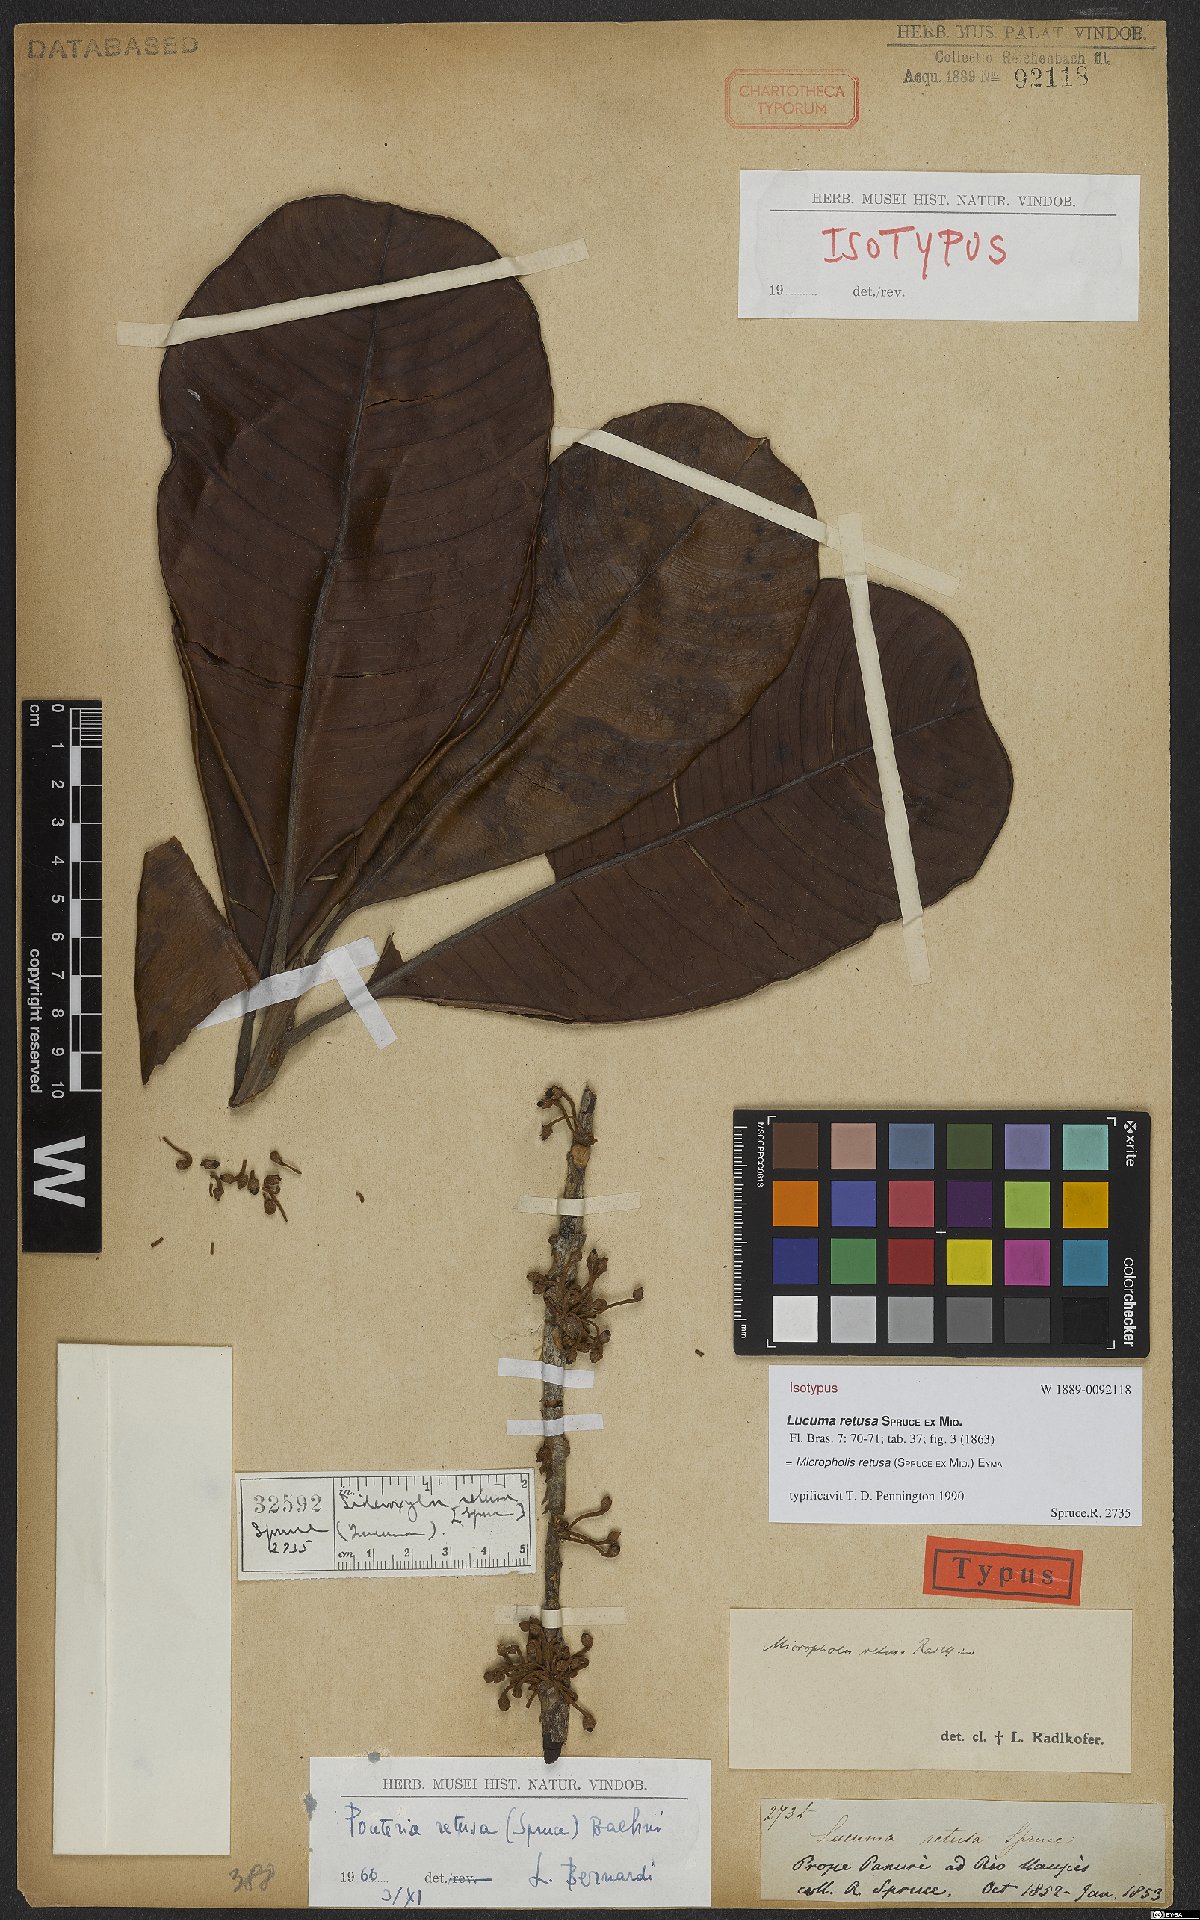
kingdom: Plantae
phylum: Tracheophyta
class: Magnoliopsida
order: Ericales
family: Sapotaceae
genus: Micropholis
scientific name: Micropholis retusa
